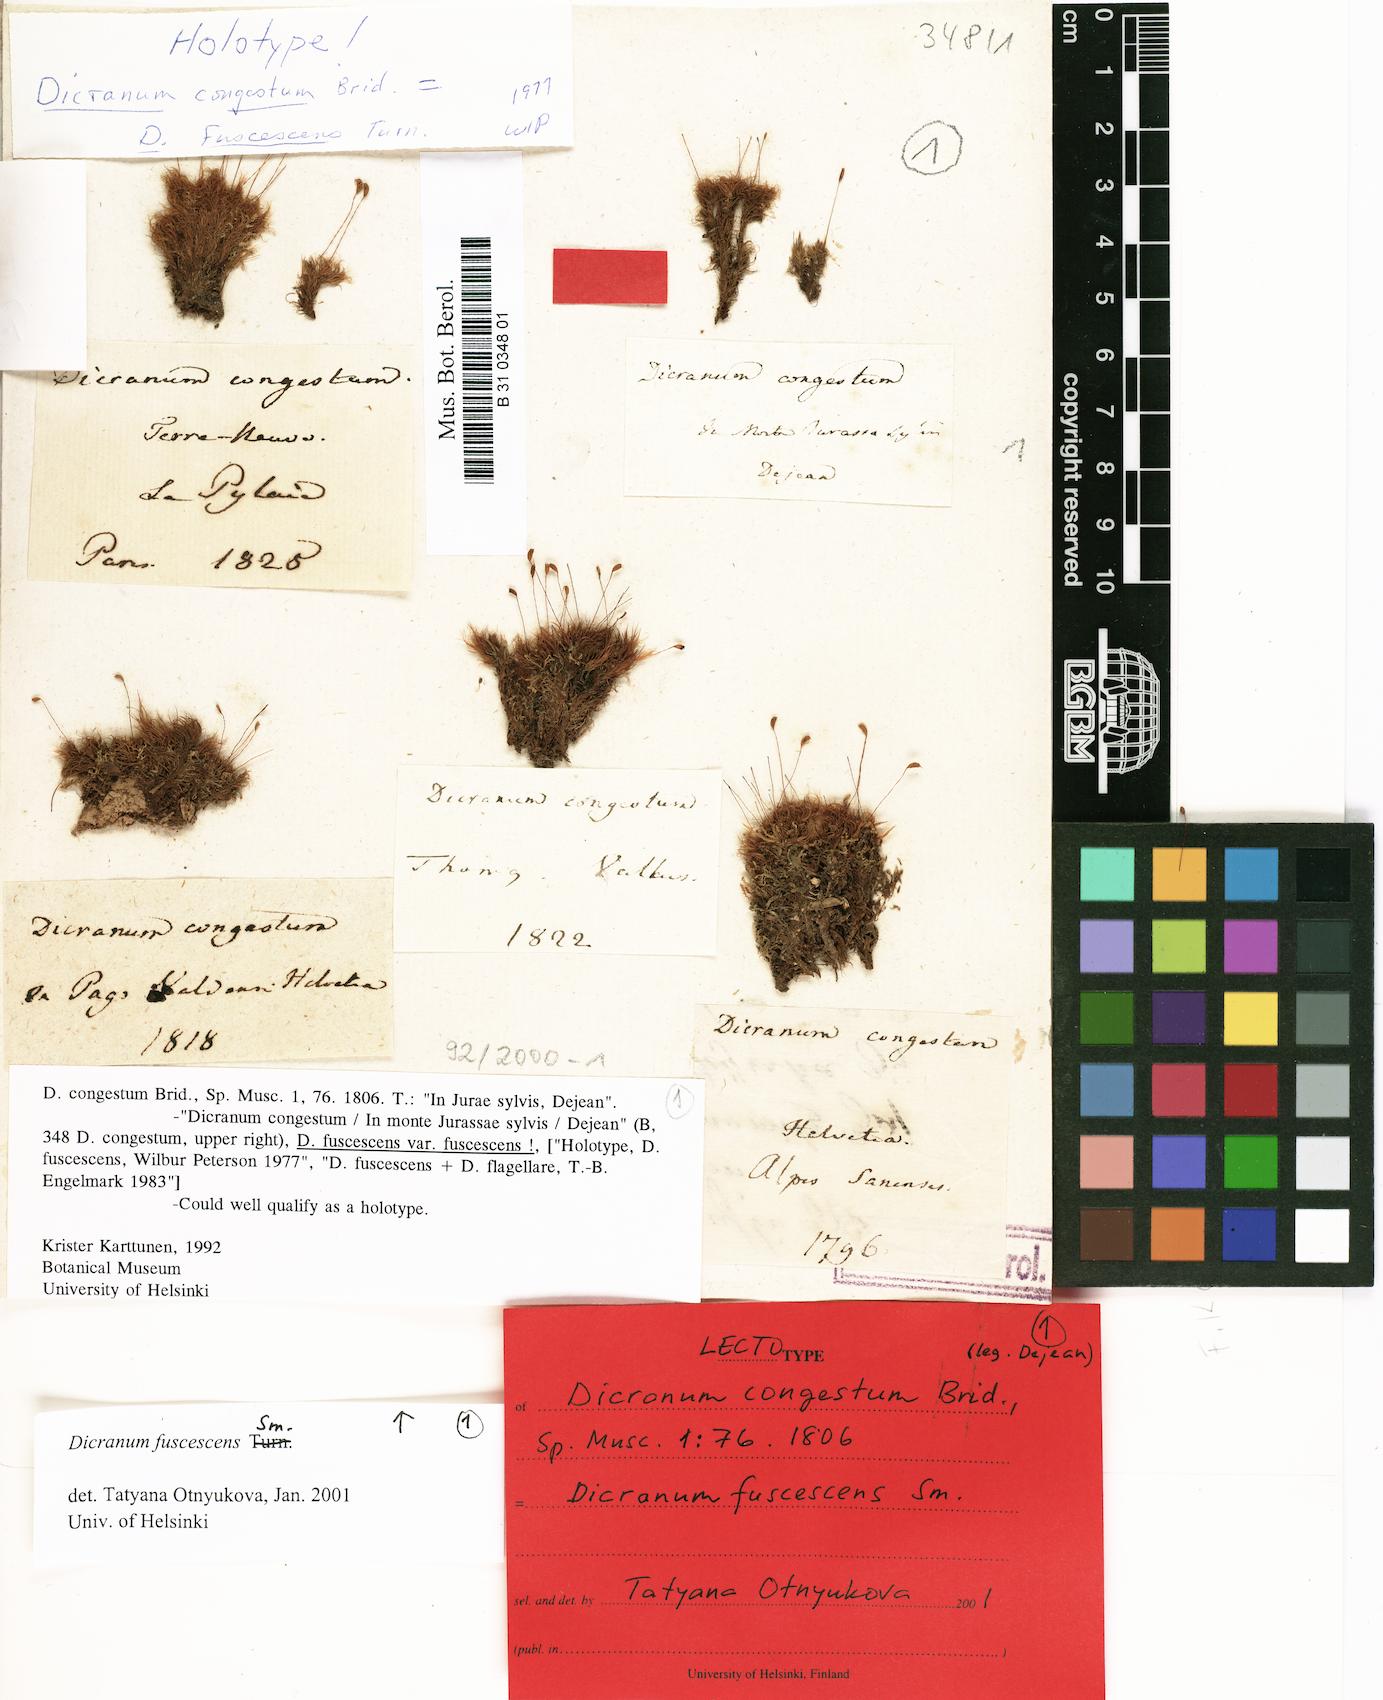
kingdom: Plantae
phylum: Bryophyta
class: Bryopsida
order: Dicranales
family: Dicranaceae
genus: Dicranum
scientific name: Dicranum fuscescens
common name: Curly heron's-bill moss
